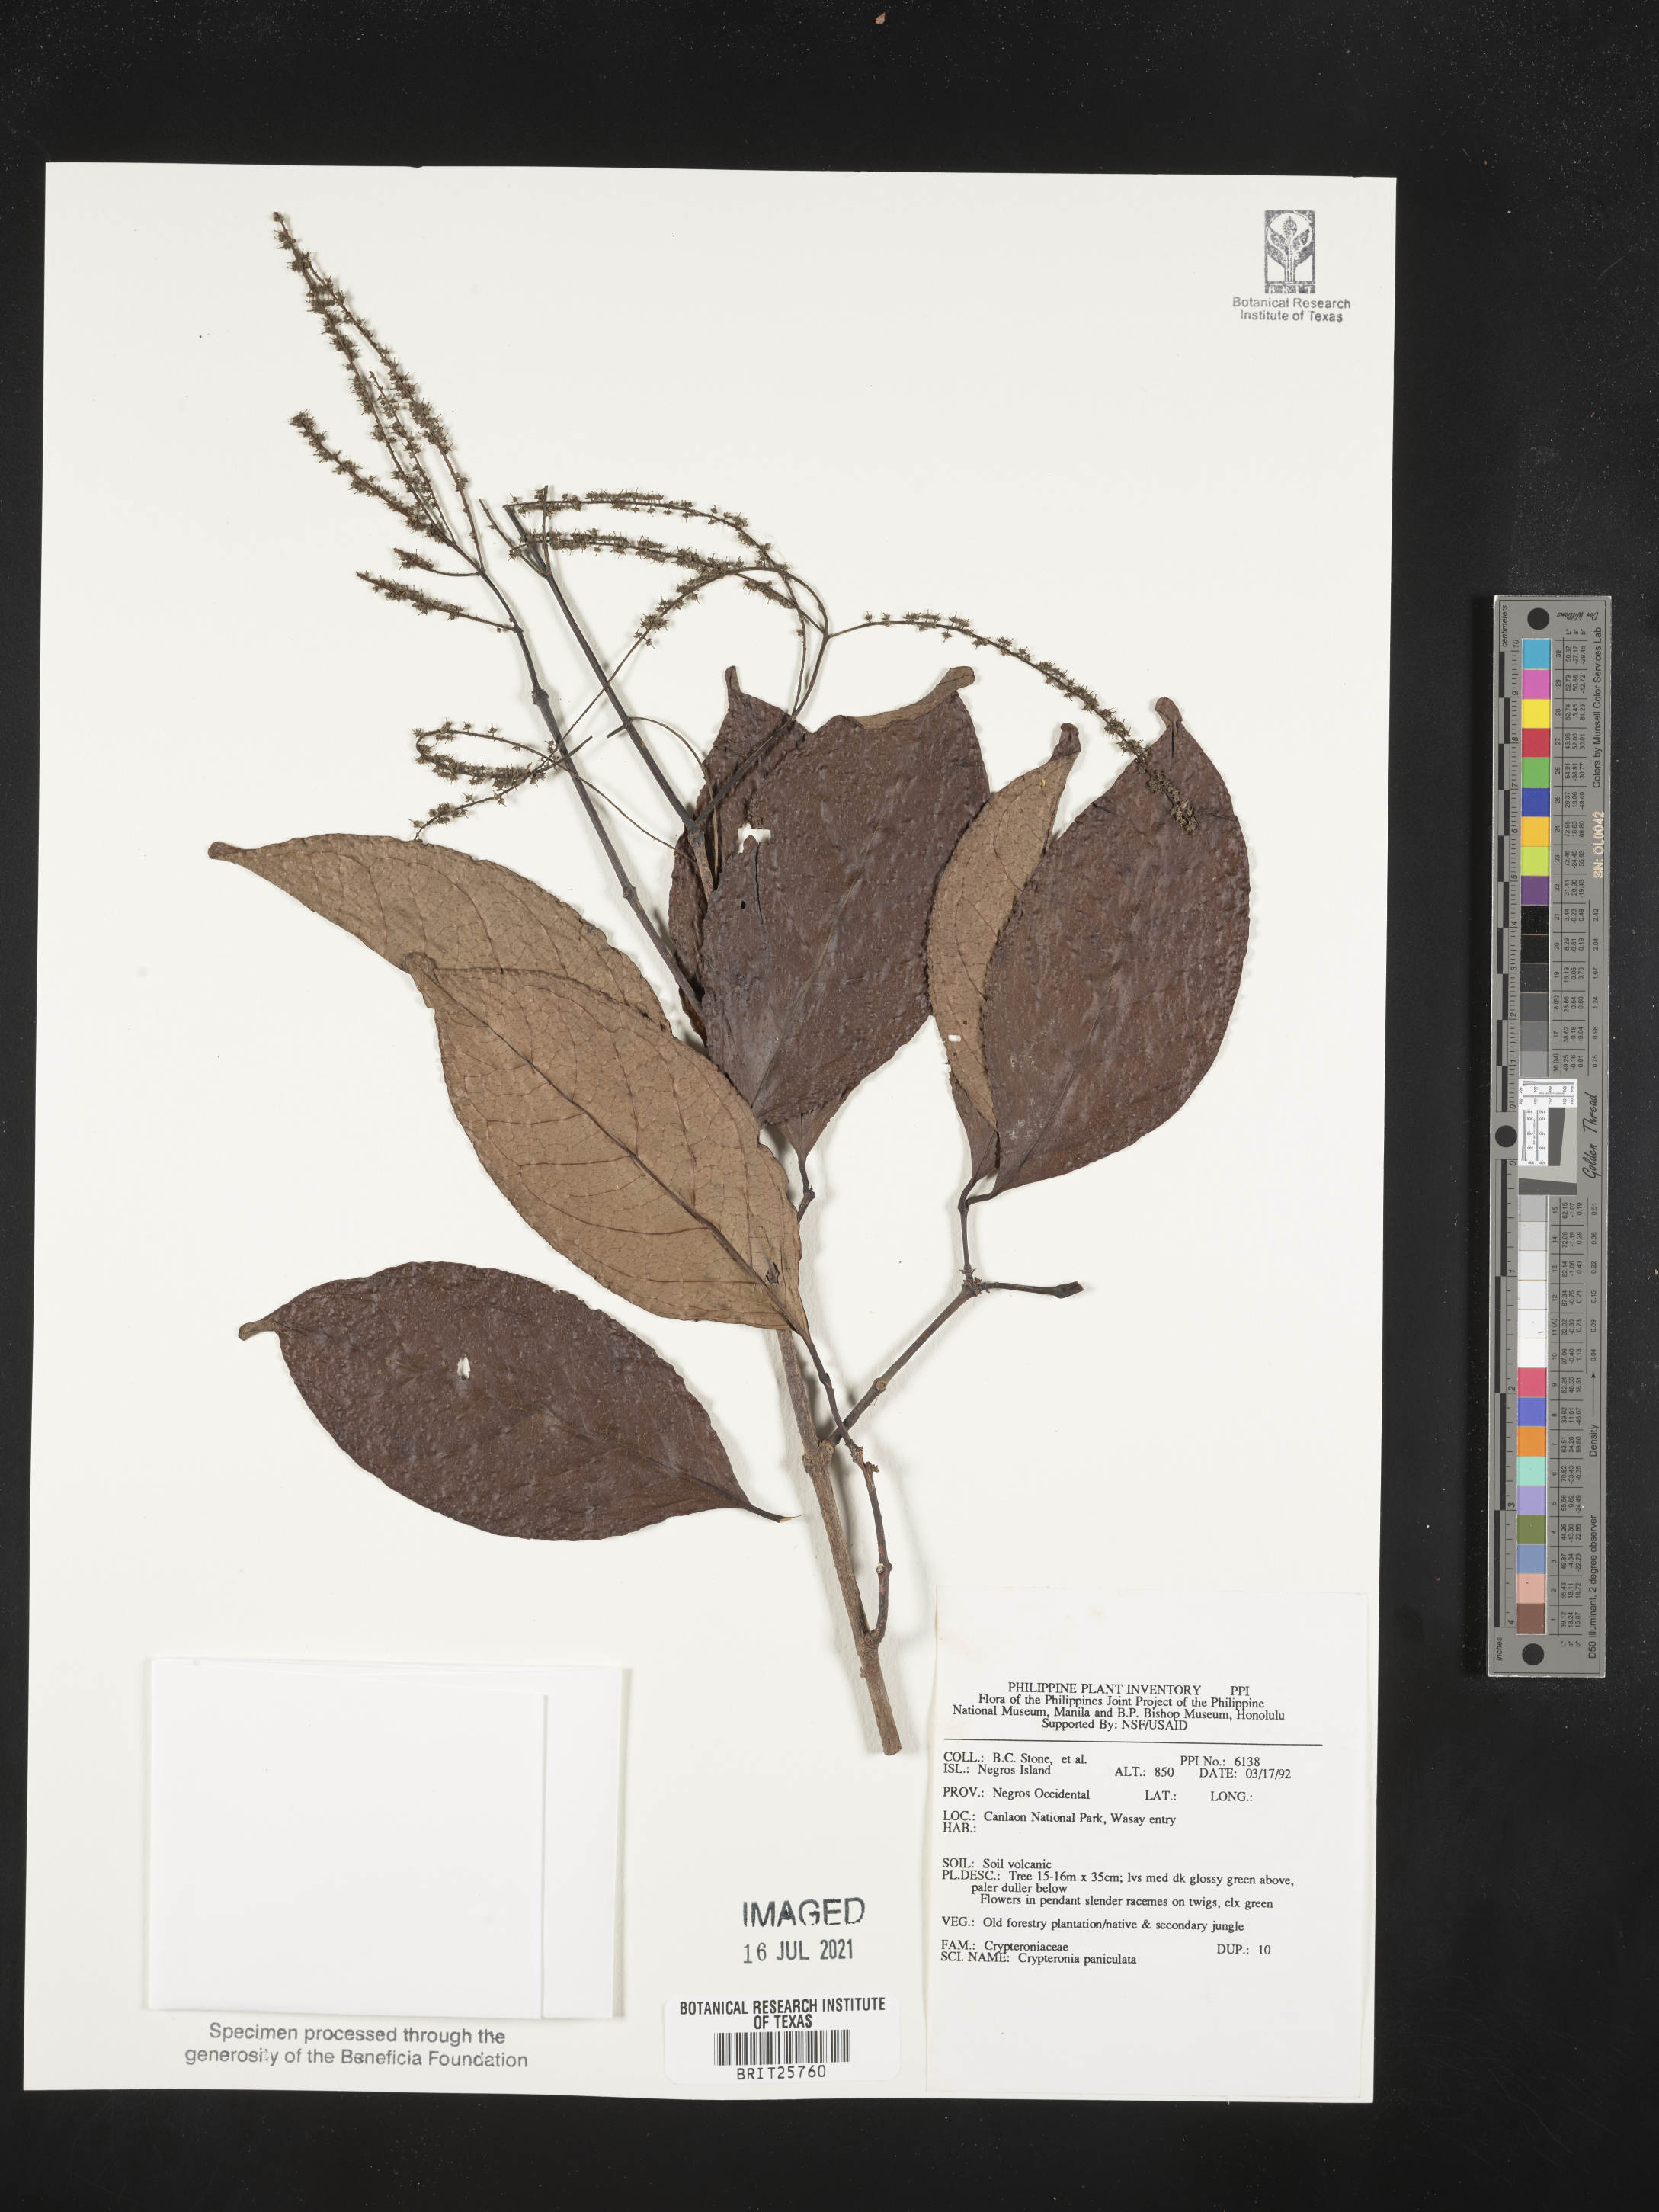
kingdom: Plantae
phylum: Tracheophyta
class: Magnoliopsida
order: Myrtales
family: Crypteroniaceae
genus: Crypteronia
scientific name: Crypteronia paniculata
